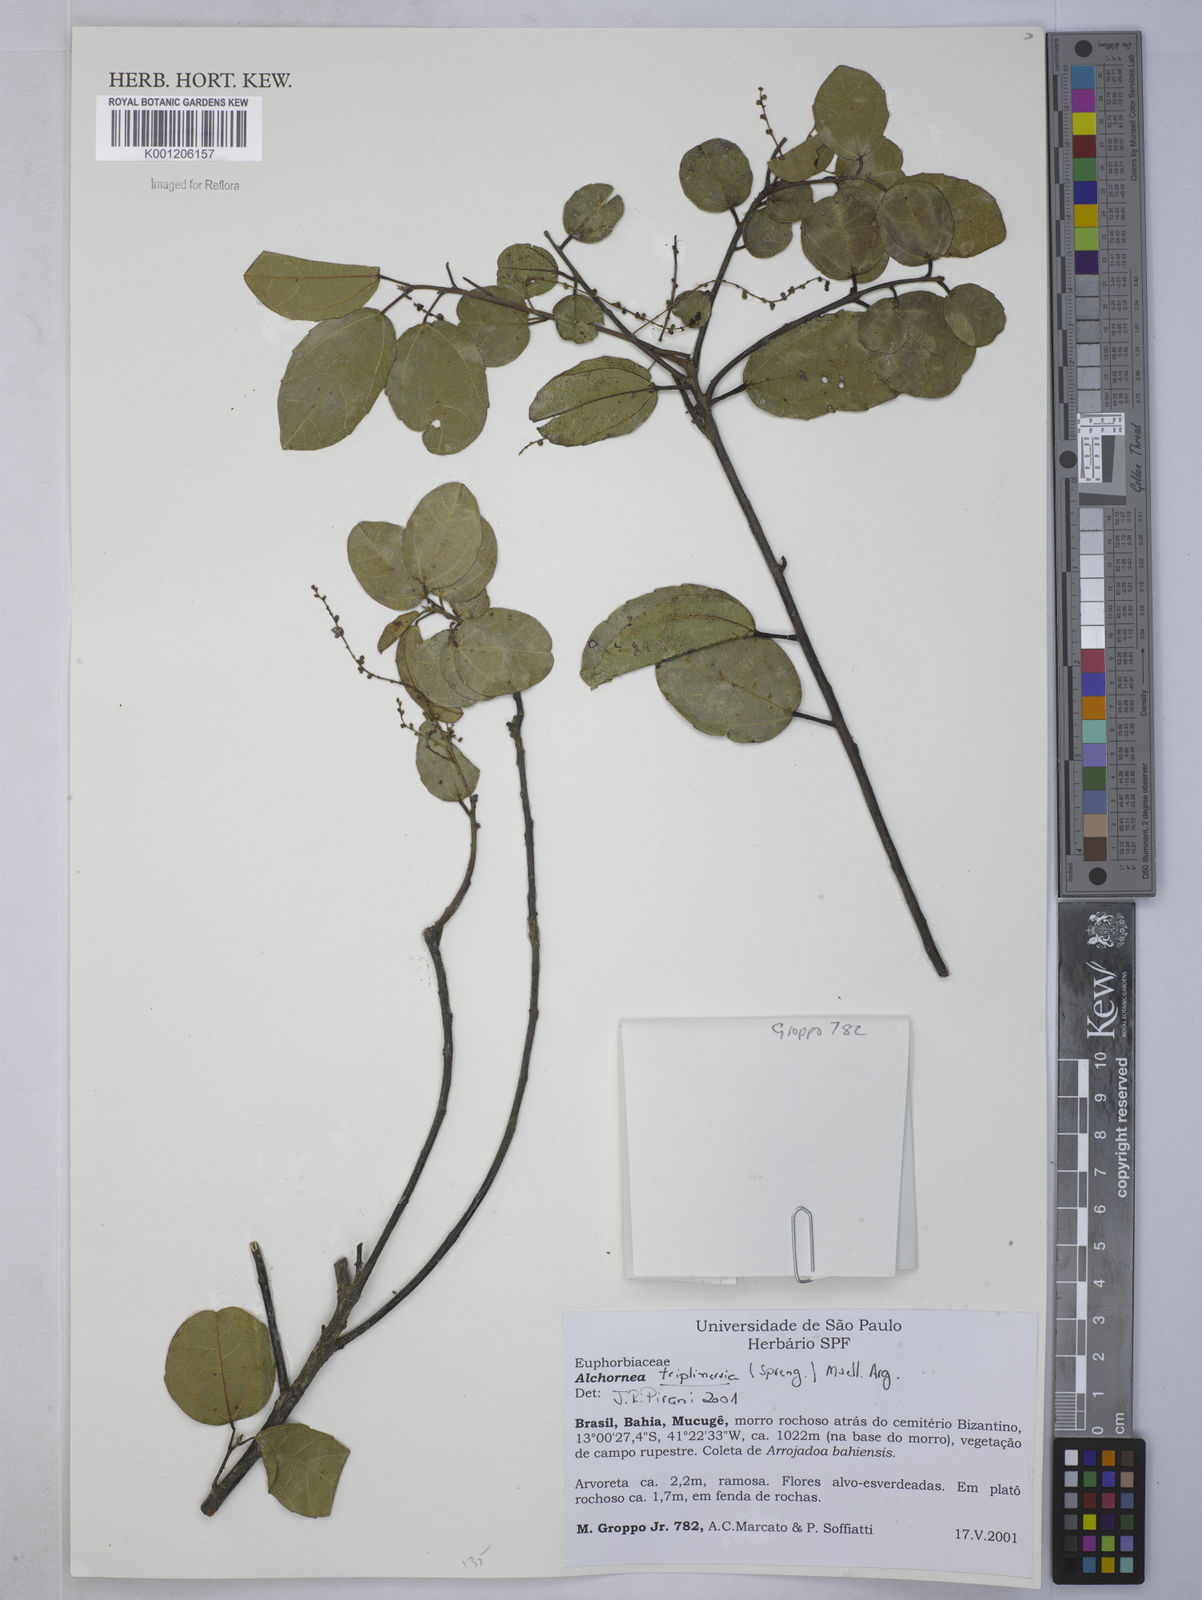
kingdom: Plantae
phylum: Tracheophyta
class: Magnoliopsida
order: Malpighiales
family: Euphorbiaceae
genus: Alchornea
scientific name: Alchornea
